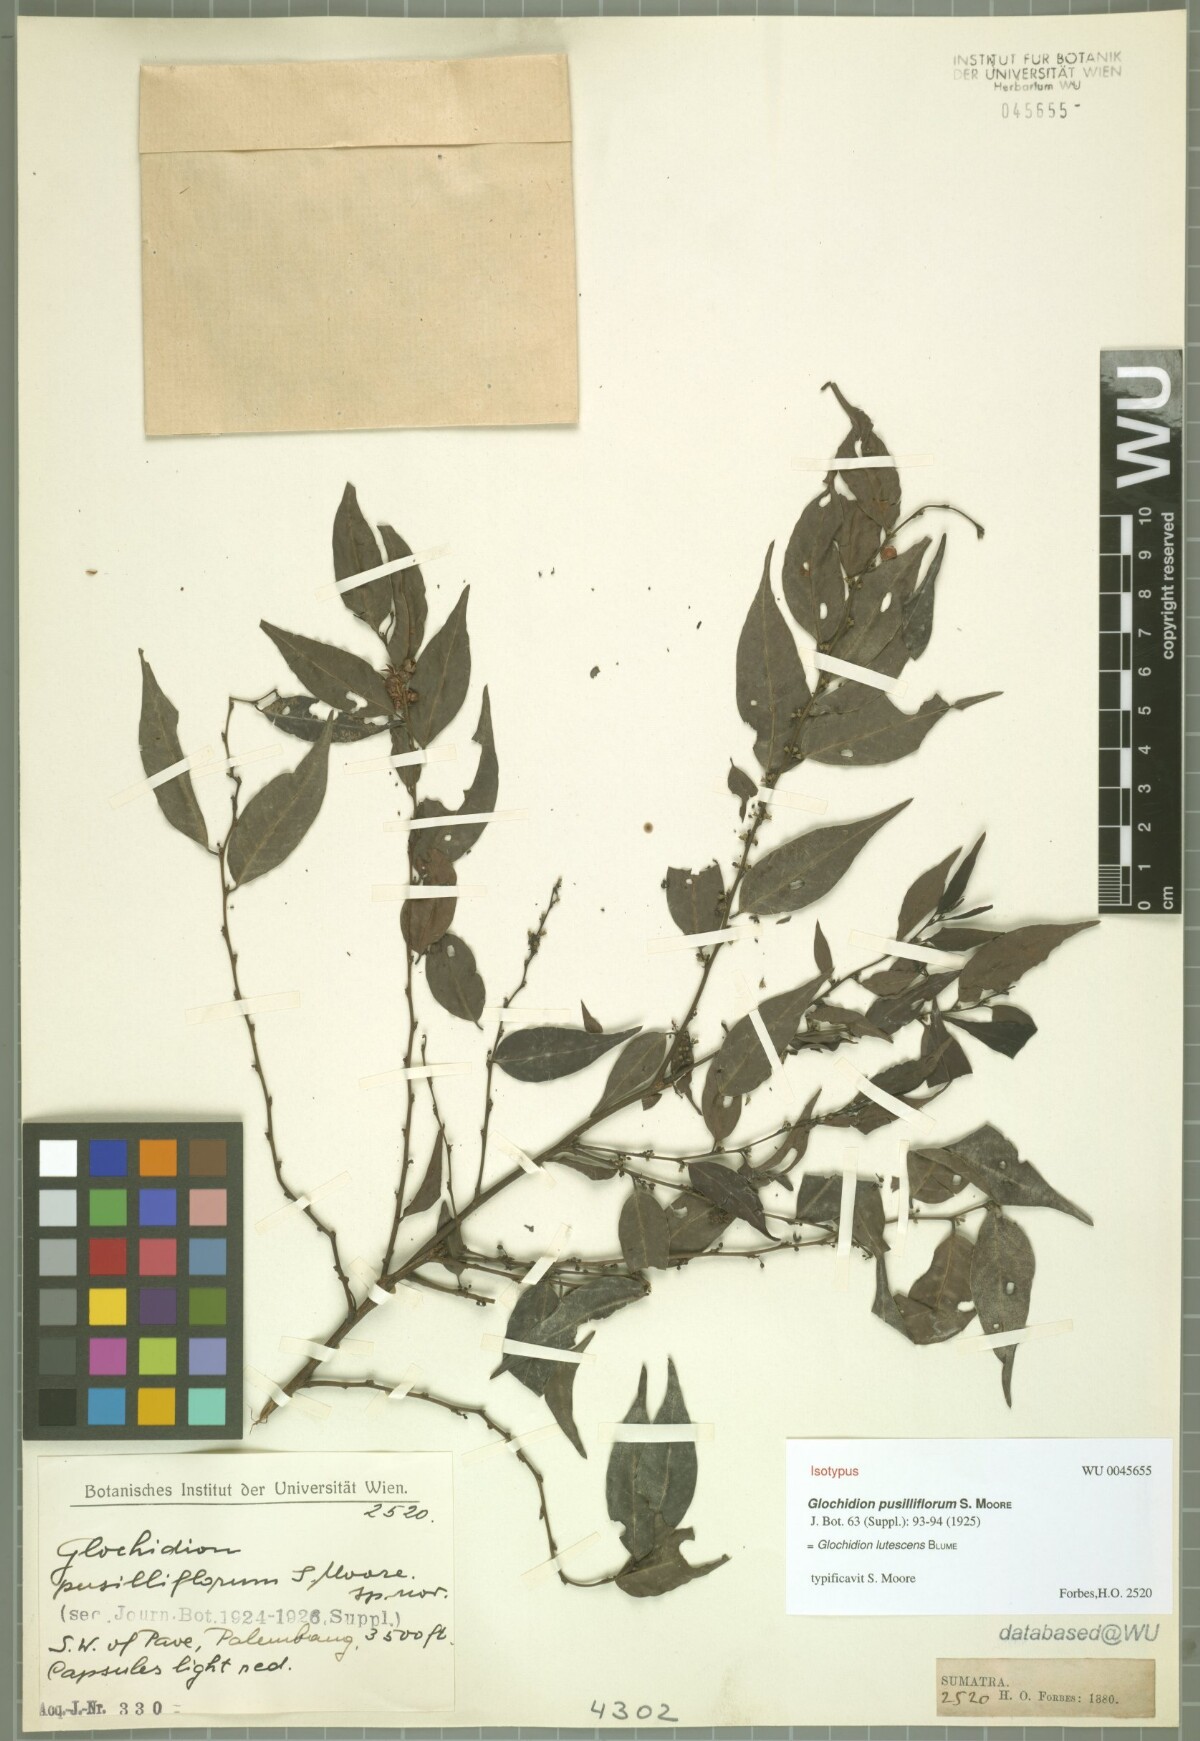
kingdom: Plantae
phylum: Tracheophyta
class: Magnoliopsida
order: Malpighiales
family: Phyllanthaceae
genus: Glochidion
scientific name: Glochidion lutescens
